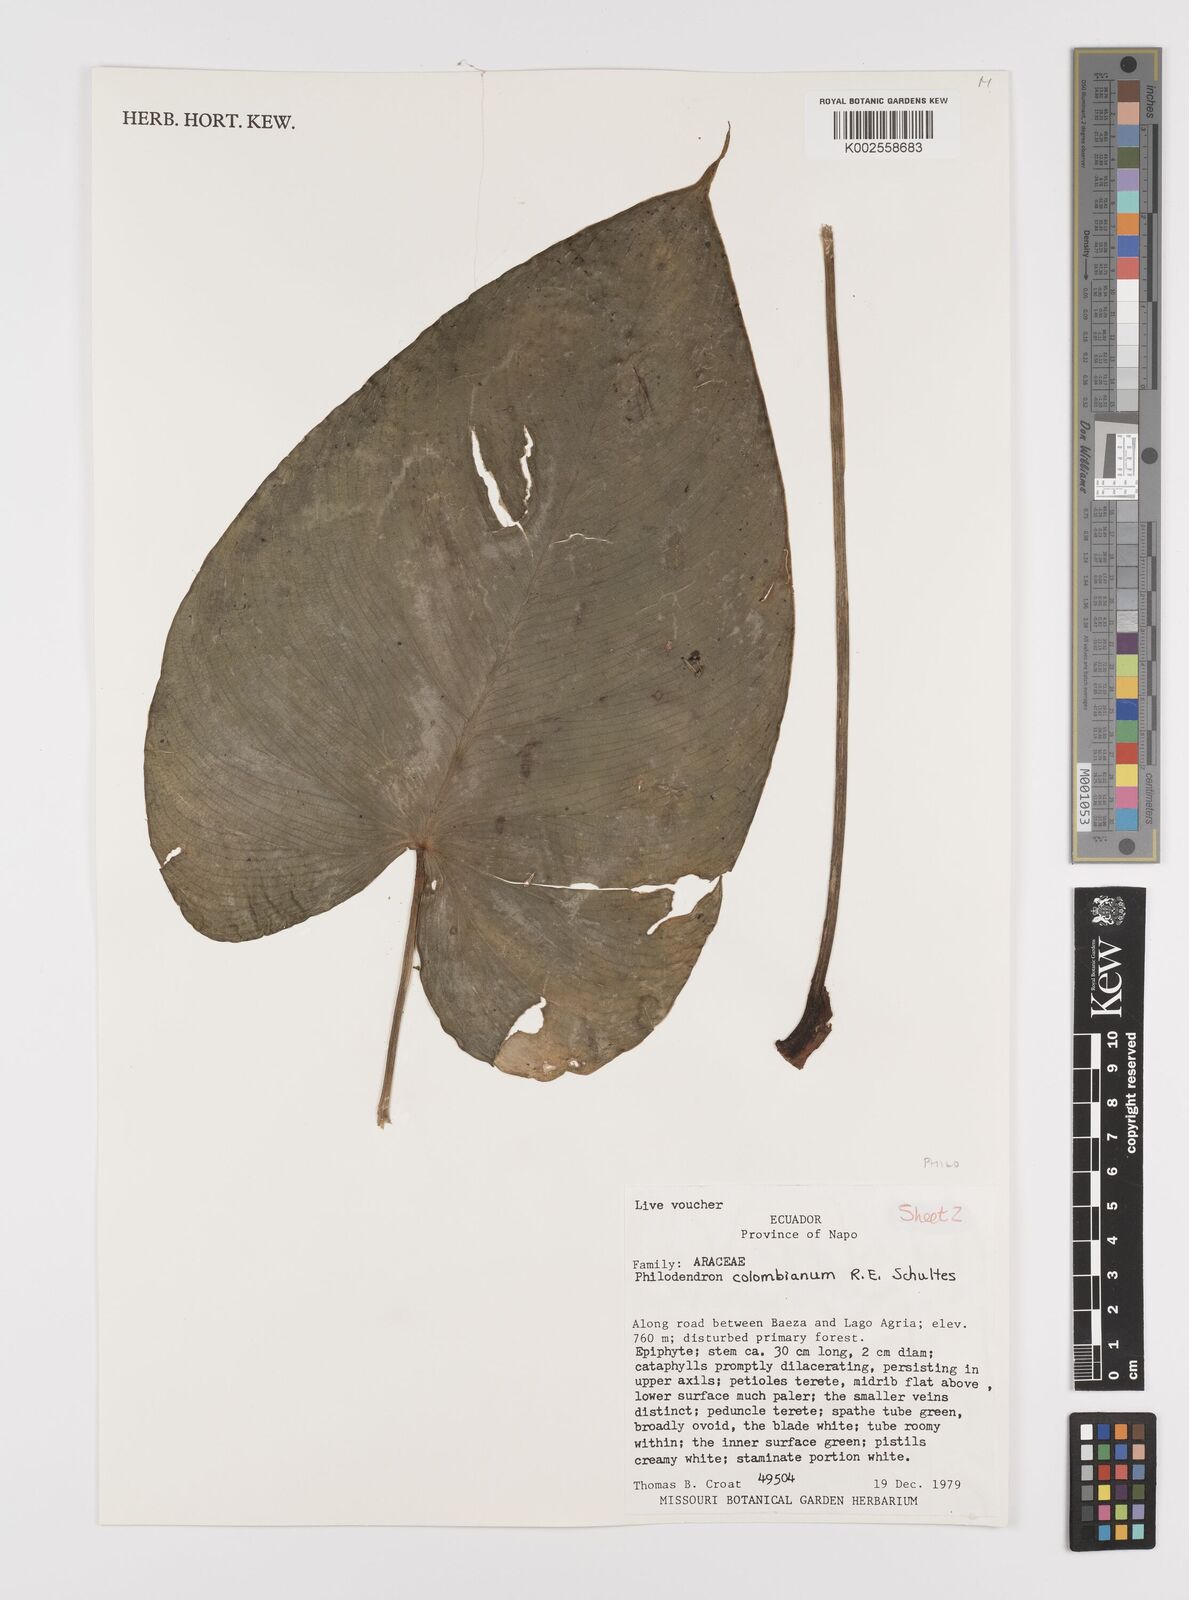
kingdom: Plantae
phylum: Tracheophyta
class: Liliopsida
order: Alismatales
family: Araceae
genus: Philodendron
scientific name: Philodendron colombianum
